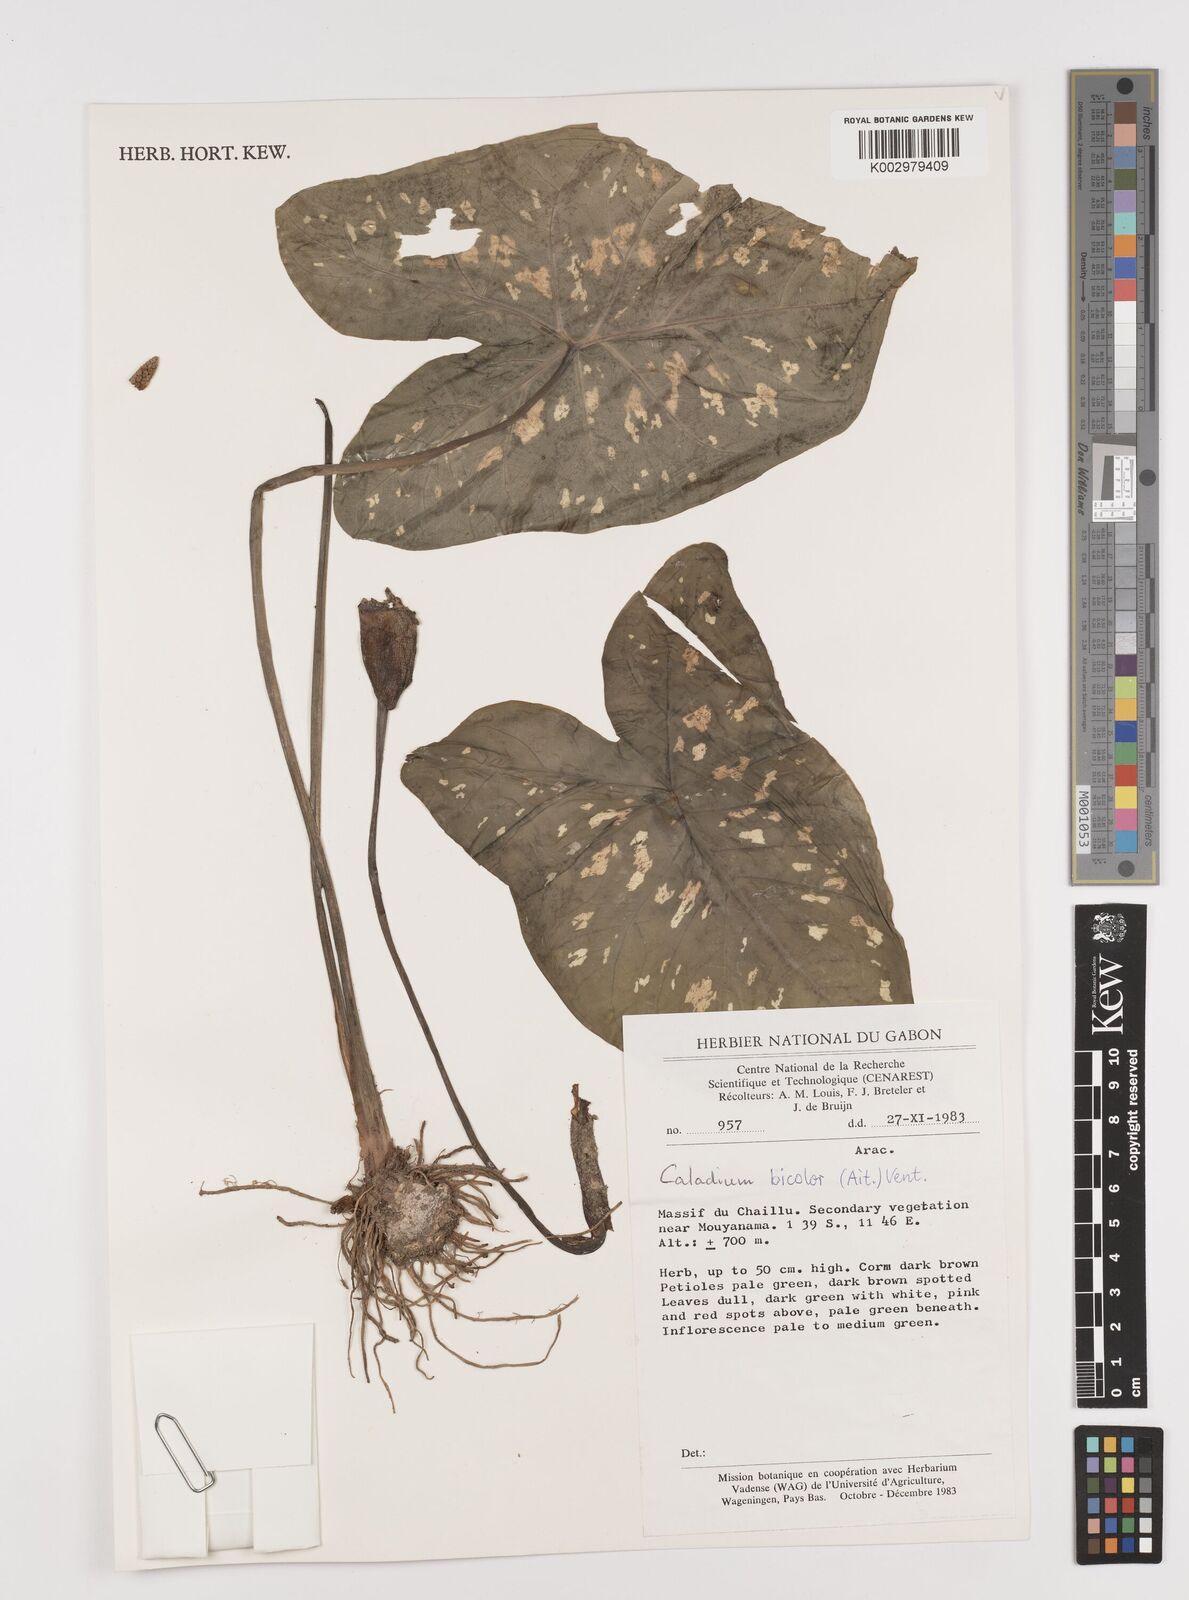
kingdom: Plantae
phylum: Tracheophyta
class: Liliopsida
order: Alismatales
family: Araceae
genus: Caladium
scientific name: Caladium bicolor
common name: Artist's pallet
